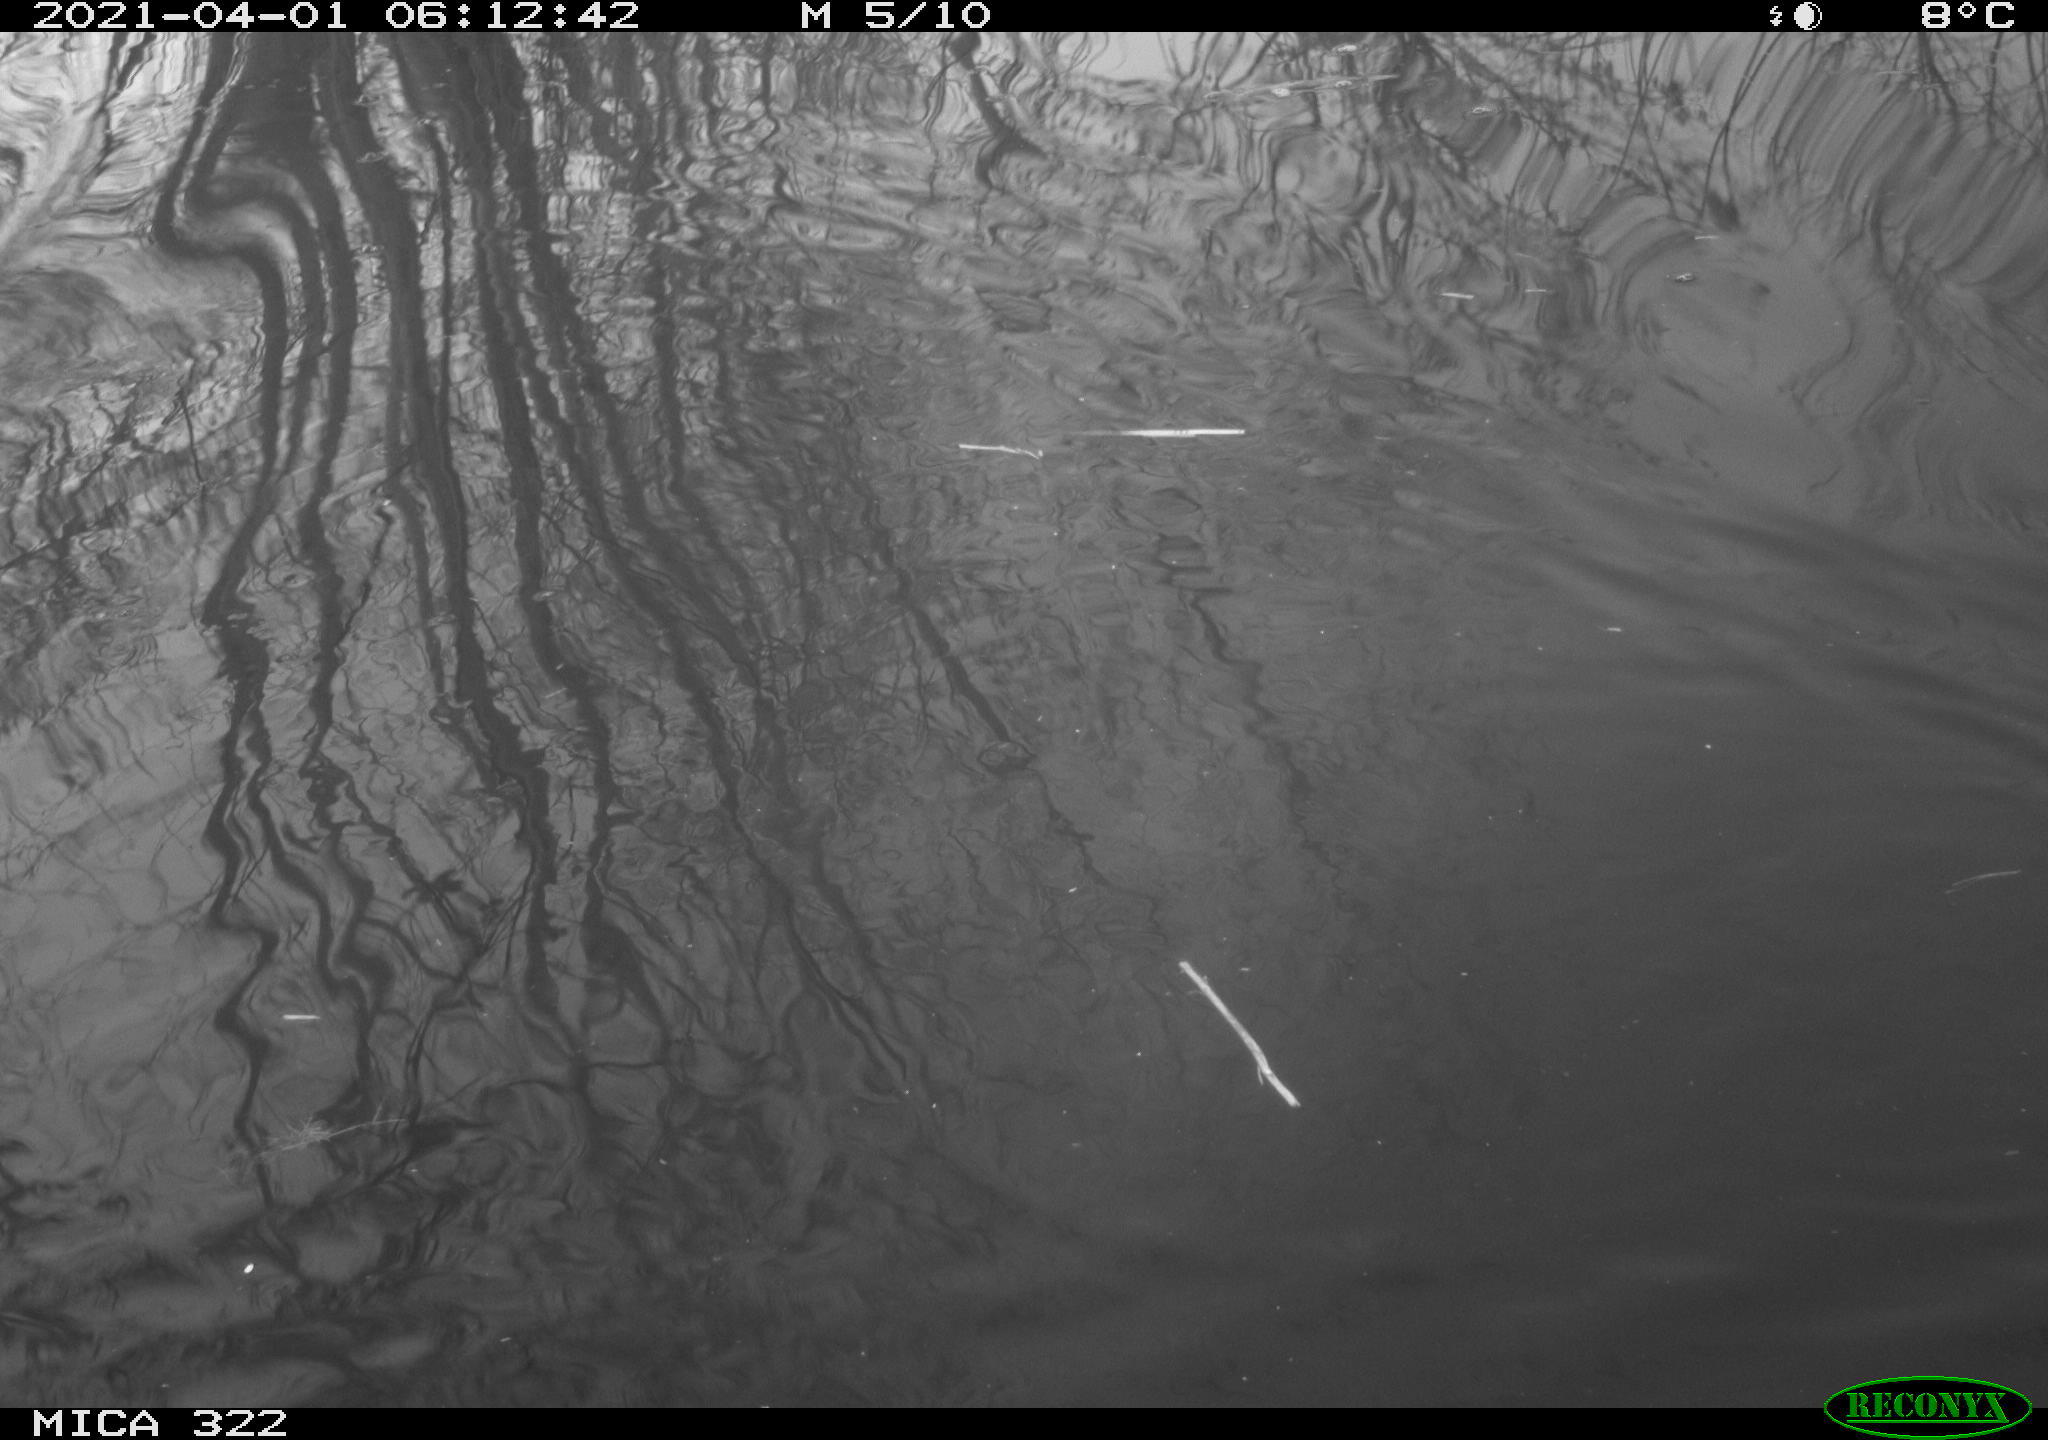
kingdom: Animalia
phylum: Chordata
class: Aves
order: Anseriformes
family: Anatidae
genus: Mareca
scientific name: Mareca strepera
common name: Gadwall
